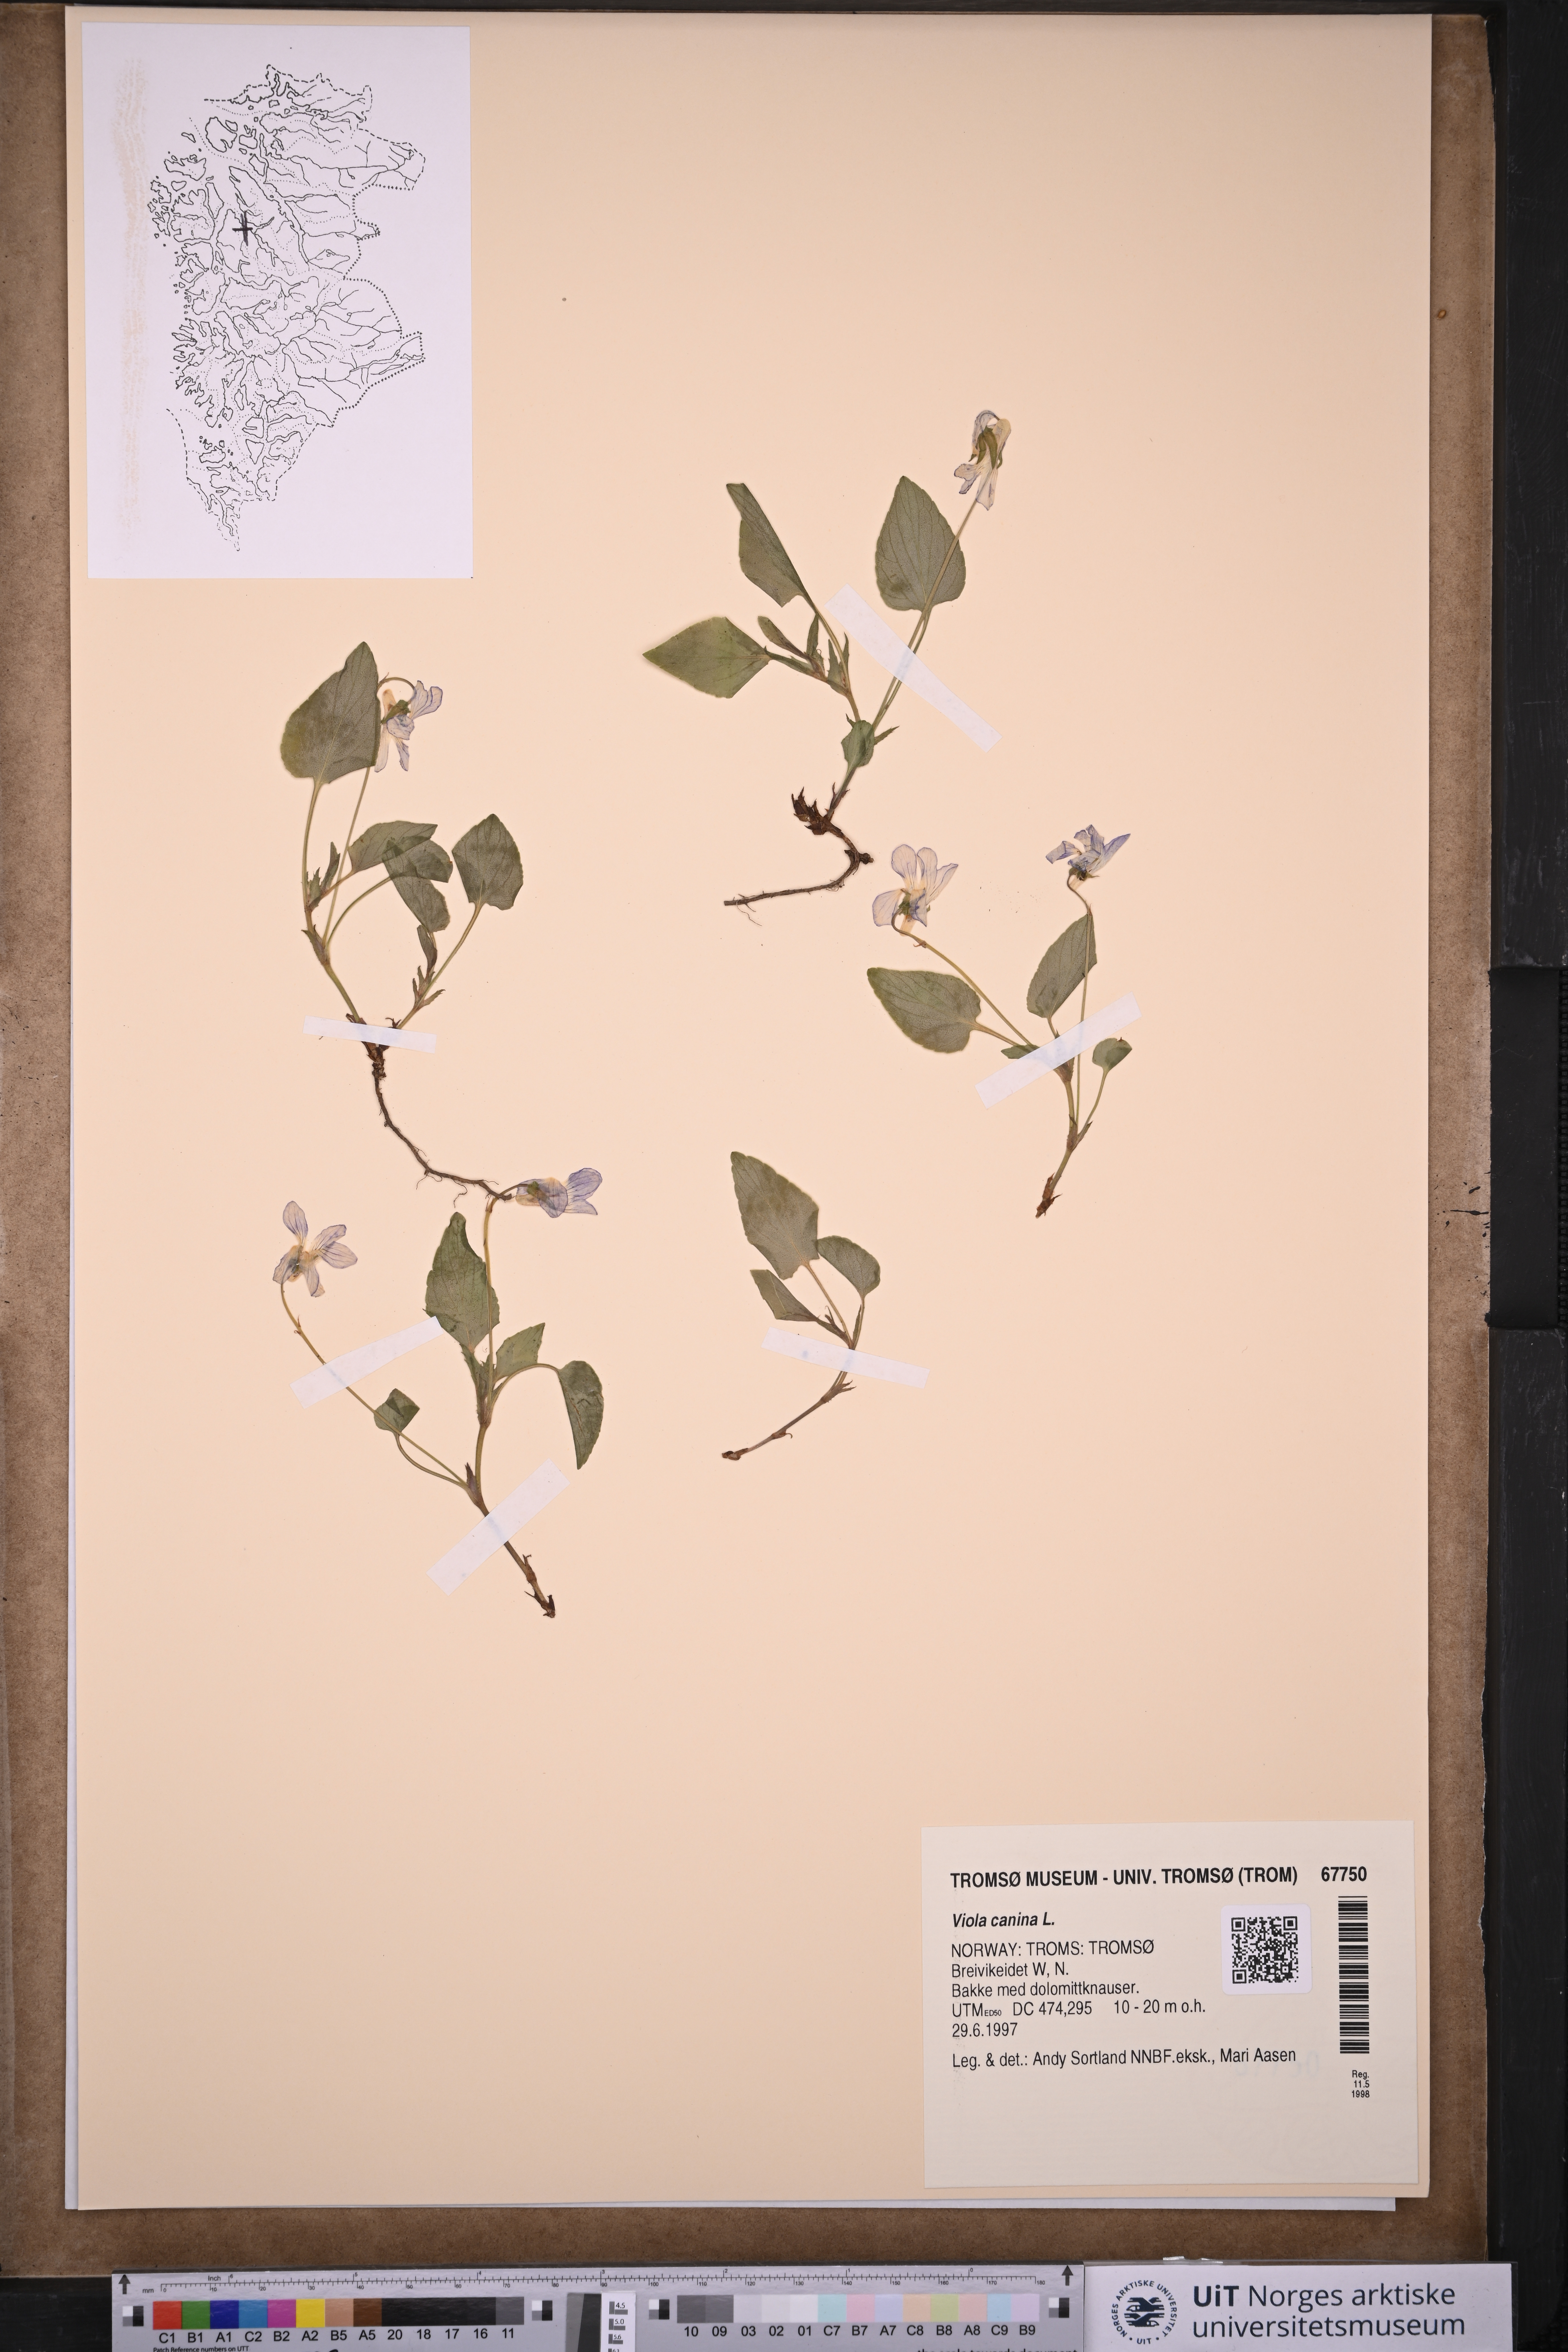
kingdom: Plantae
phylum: Tracheophyta
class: Magnoliopsida
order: Malpighiales
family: Violaceae
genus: Viola
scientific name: Viola canina
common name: Heath dog-violet
